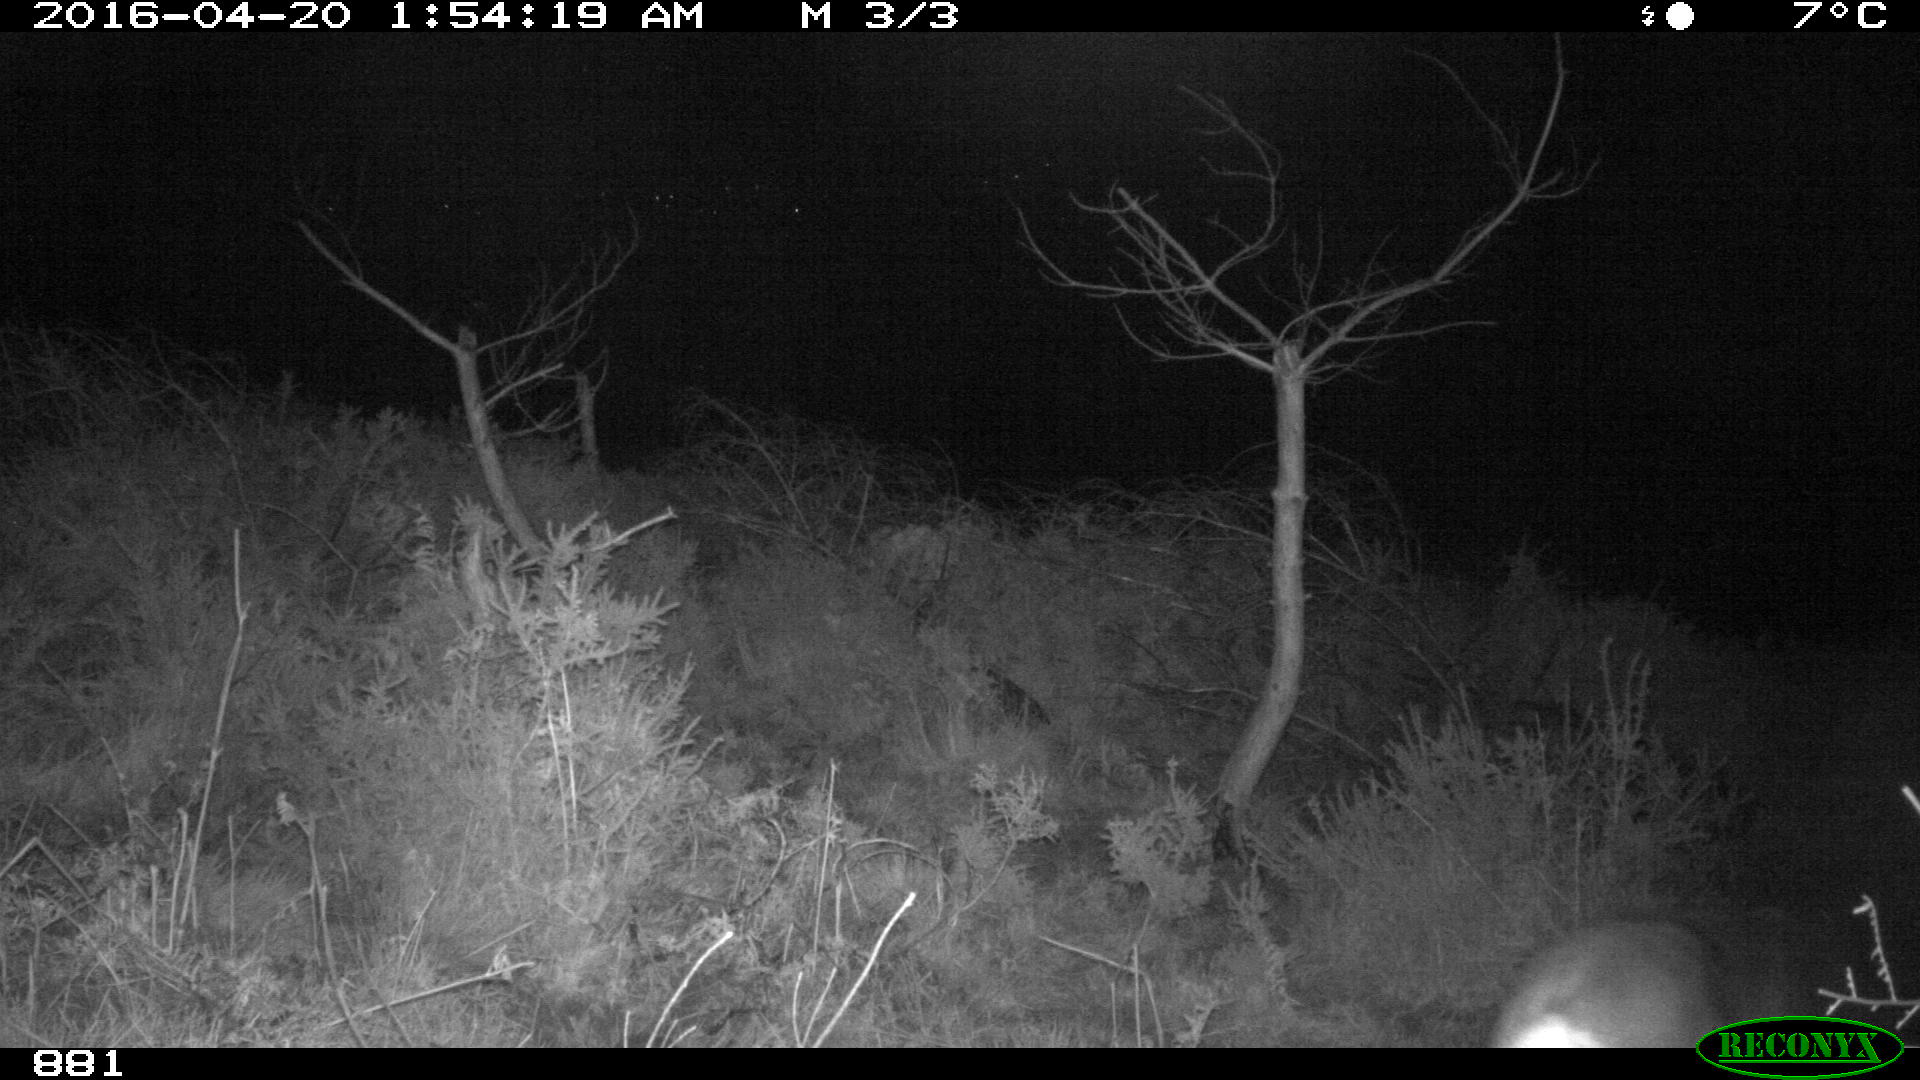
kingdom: Animalia
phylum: Chordata
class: Mammalia
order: Artiodactyla
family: Cervidae
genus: Capreolus
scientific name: Capreolus capreolus
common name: Western roe deer
